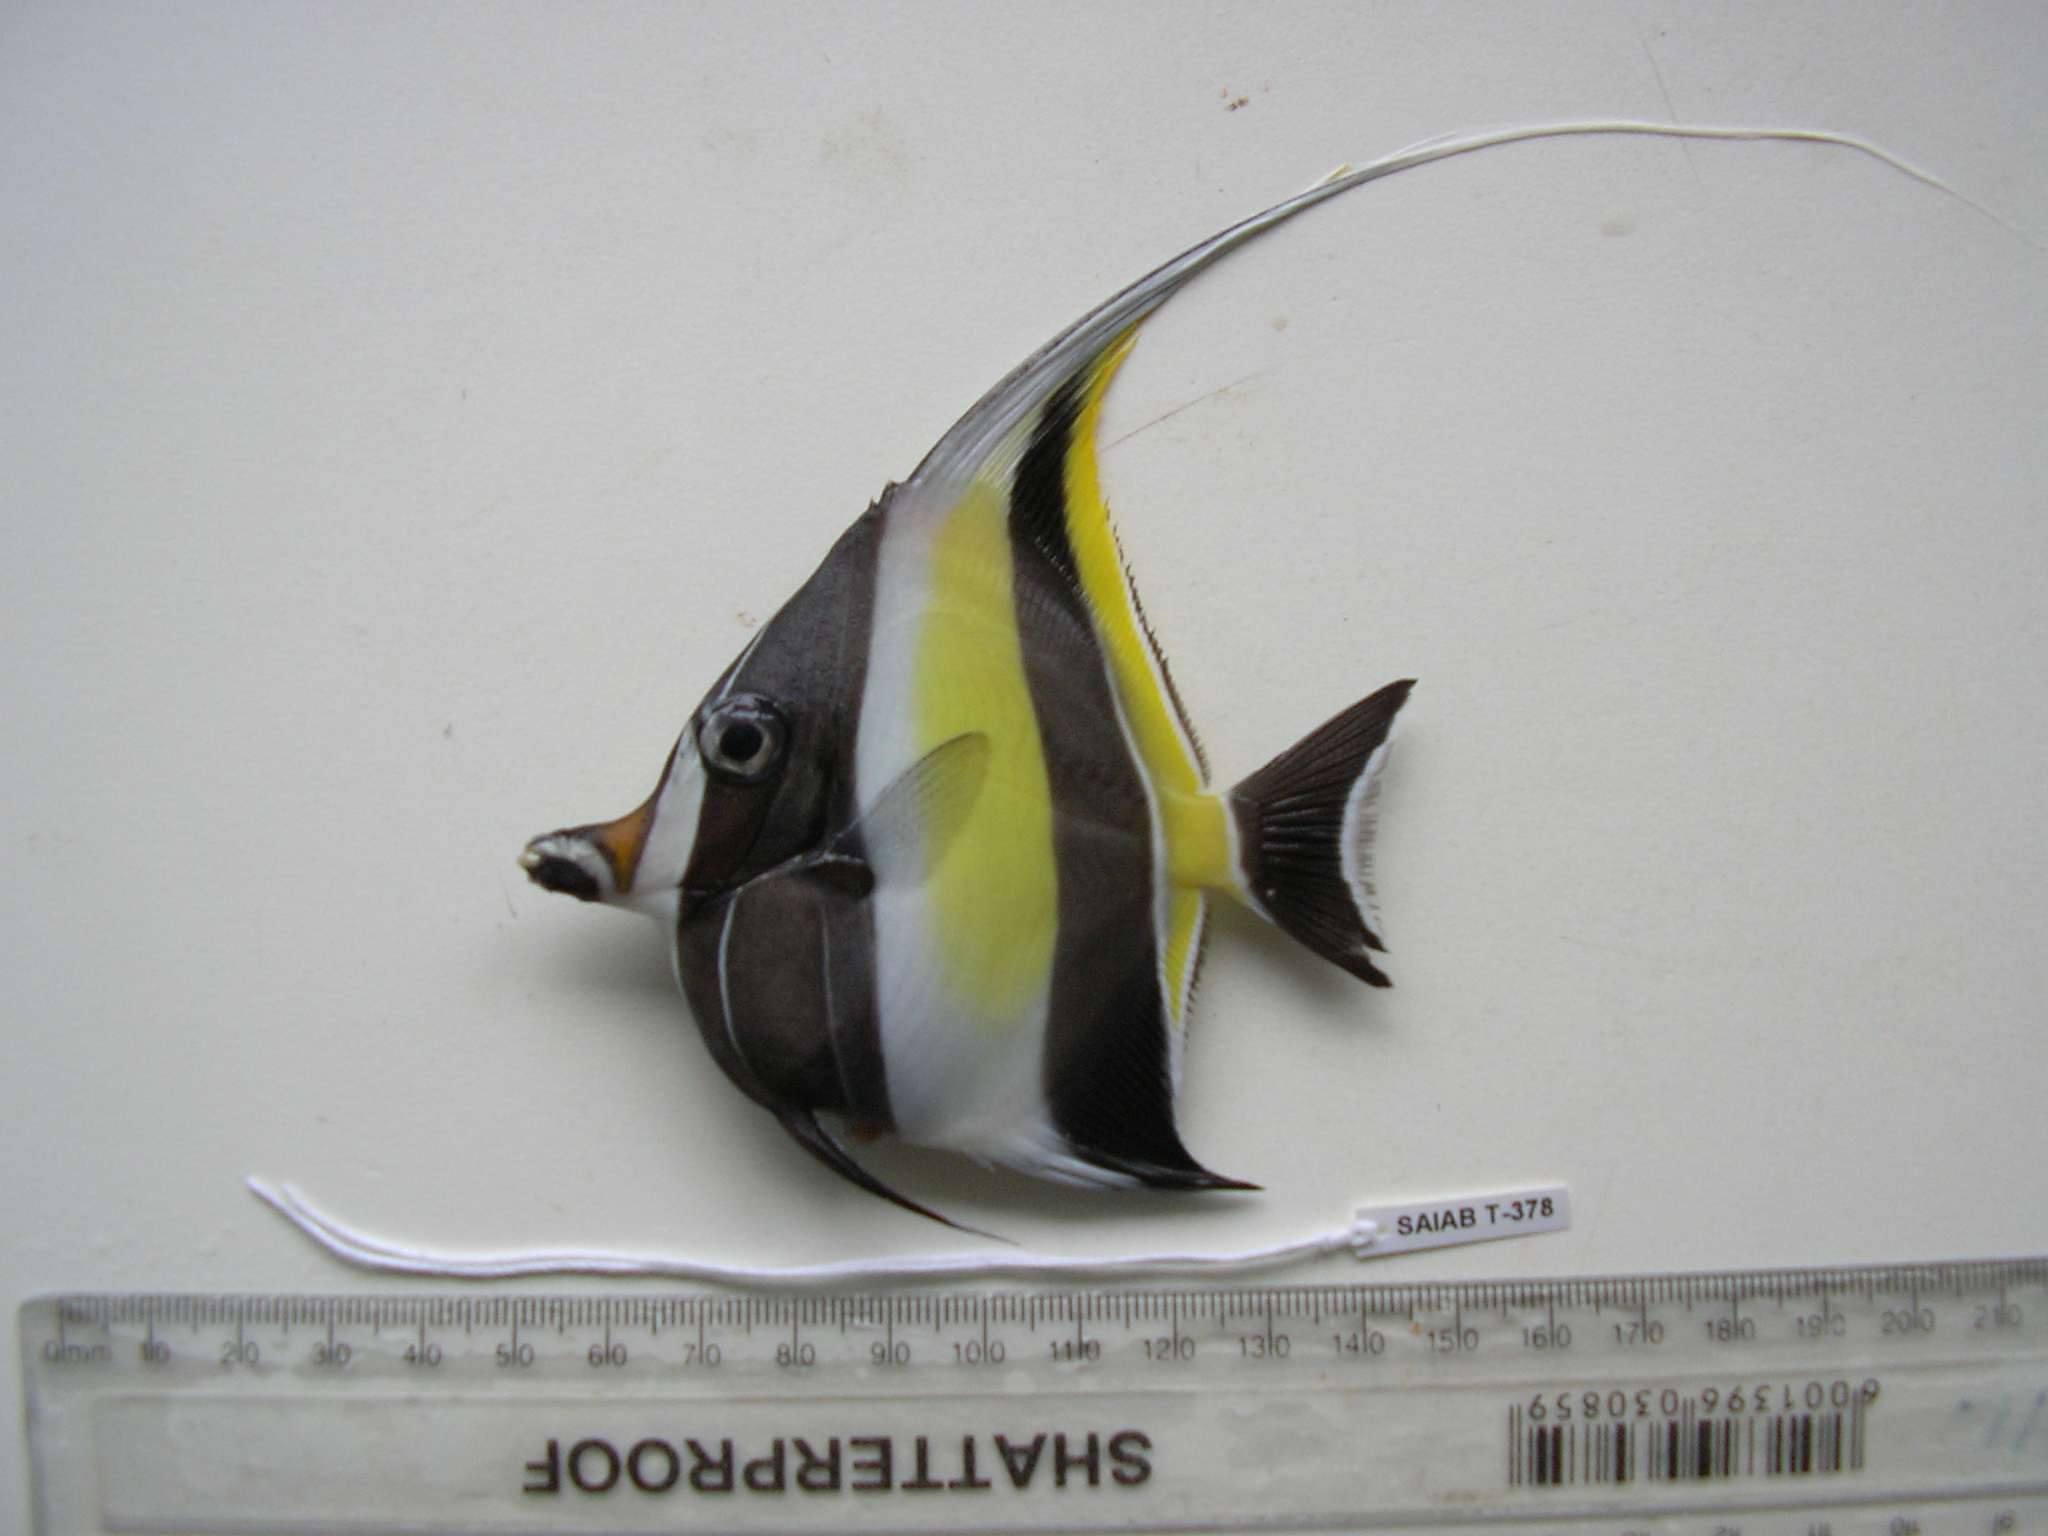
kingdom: Animalia
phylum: Chordata
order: Perciformes
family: Zanclidae
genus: Zanclus
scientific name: Zanclus cornutus
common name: Moorish idol
